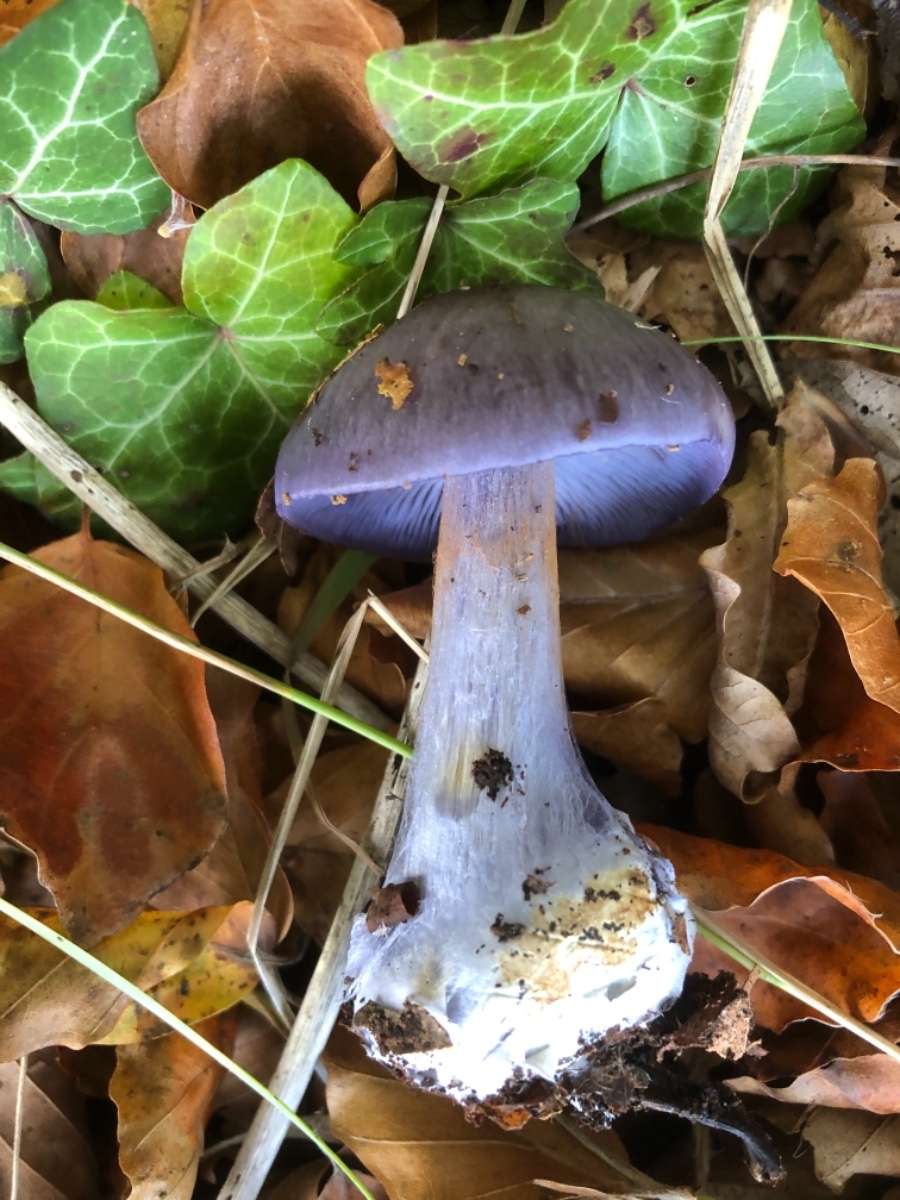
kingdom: Fungi
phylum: Basidiomycota
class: Agaricomycetes
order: Agaricales
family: Cortinariaceae
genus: Phlegmacium
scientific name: Phlegmacium viridocoeruleum
